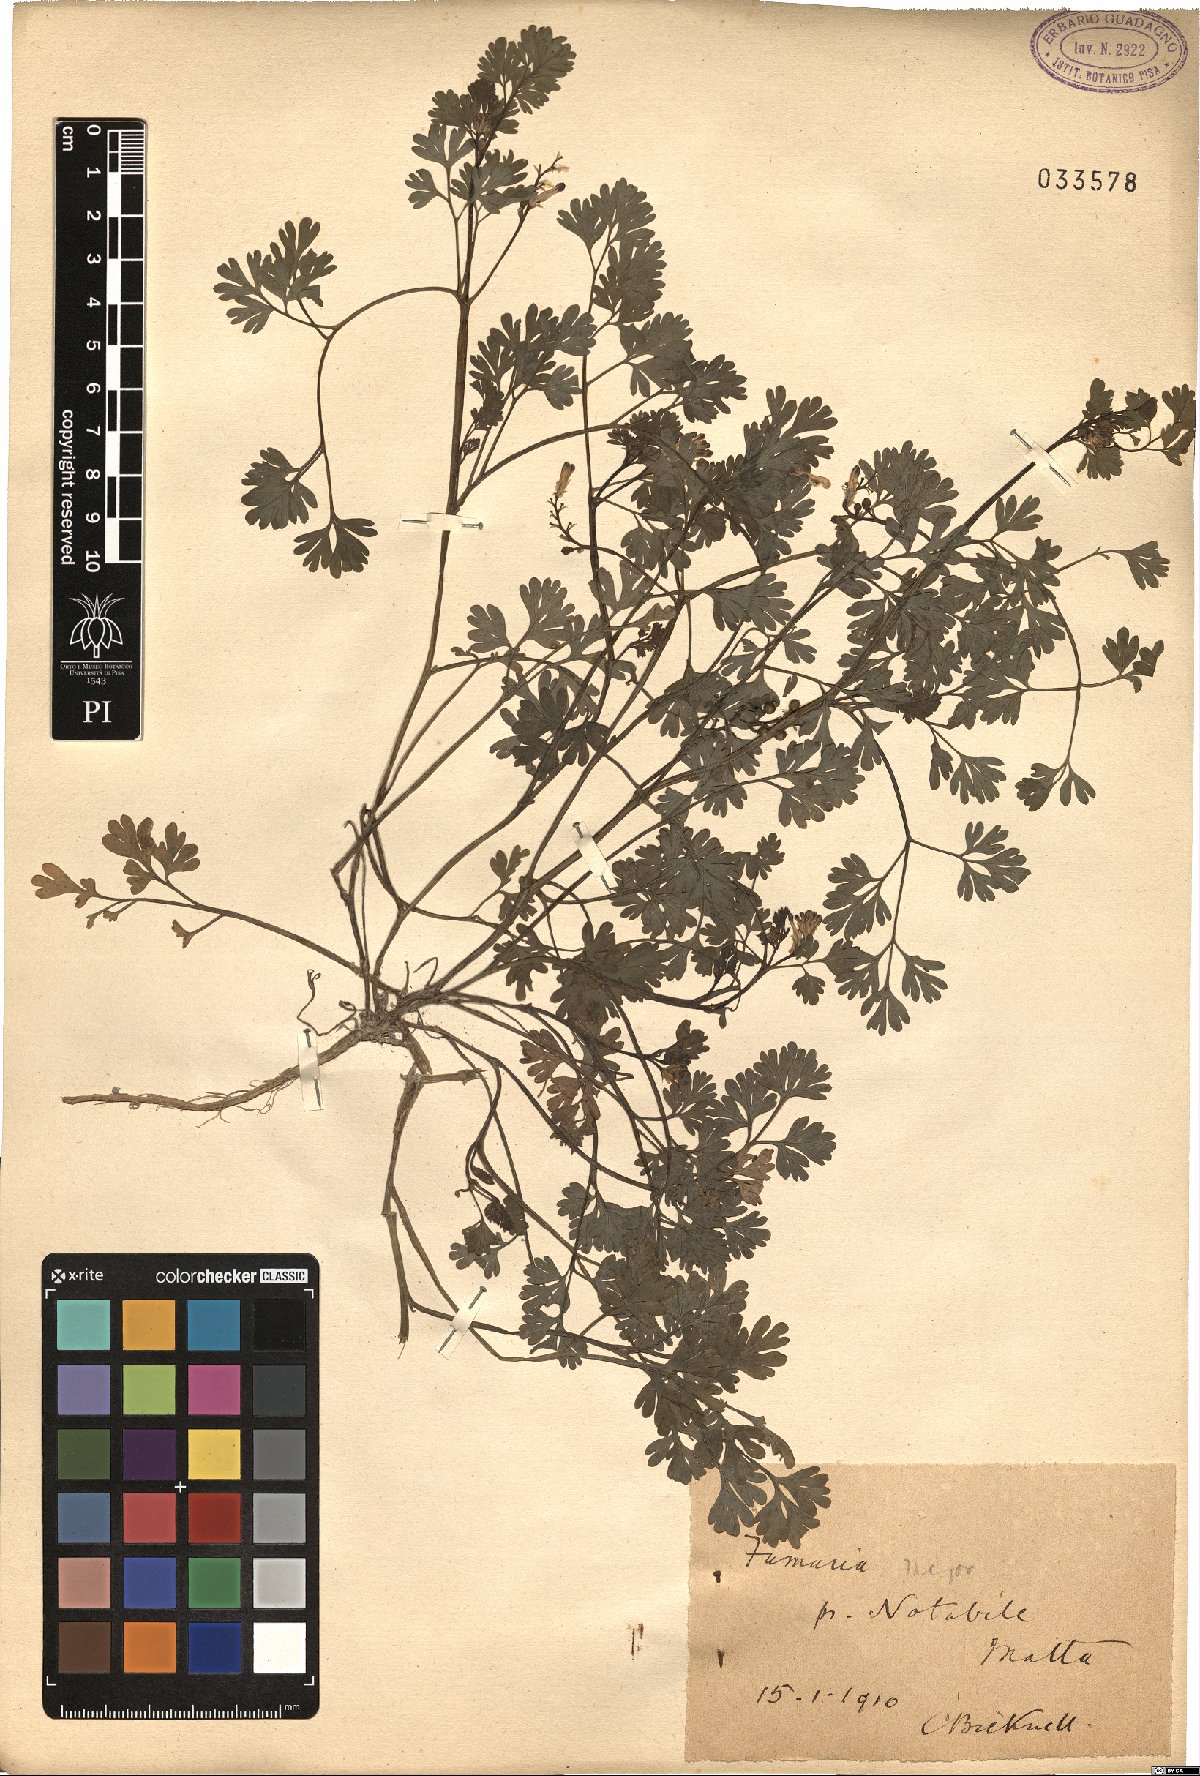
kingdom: Plantae
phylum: Tracheophyta
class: Magnoliopsida
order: Ranunculales
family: Papaveraceae
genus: Fumaria
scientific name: Fumaria barnolae
